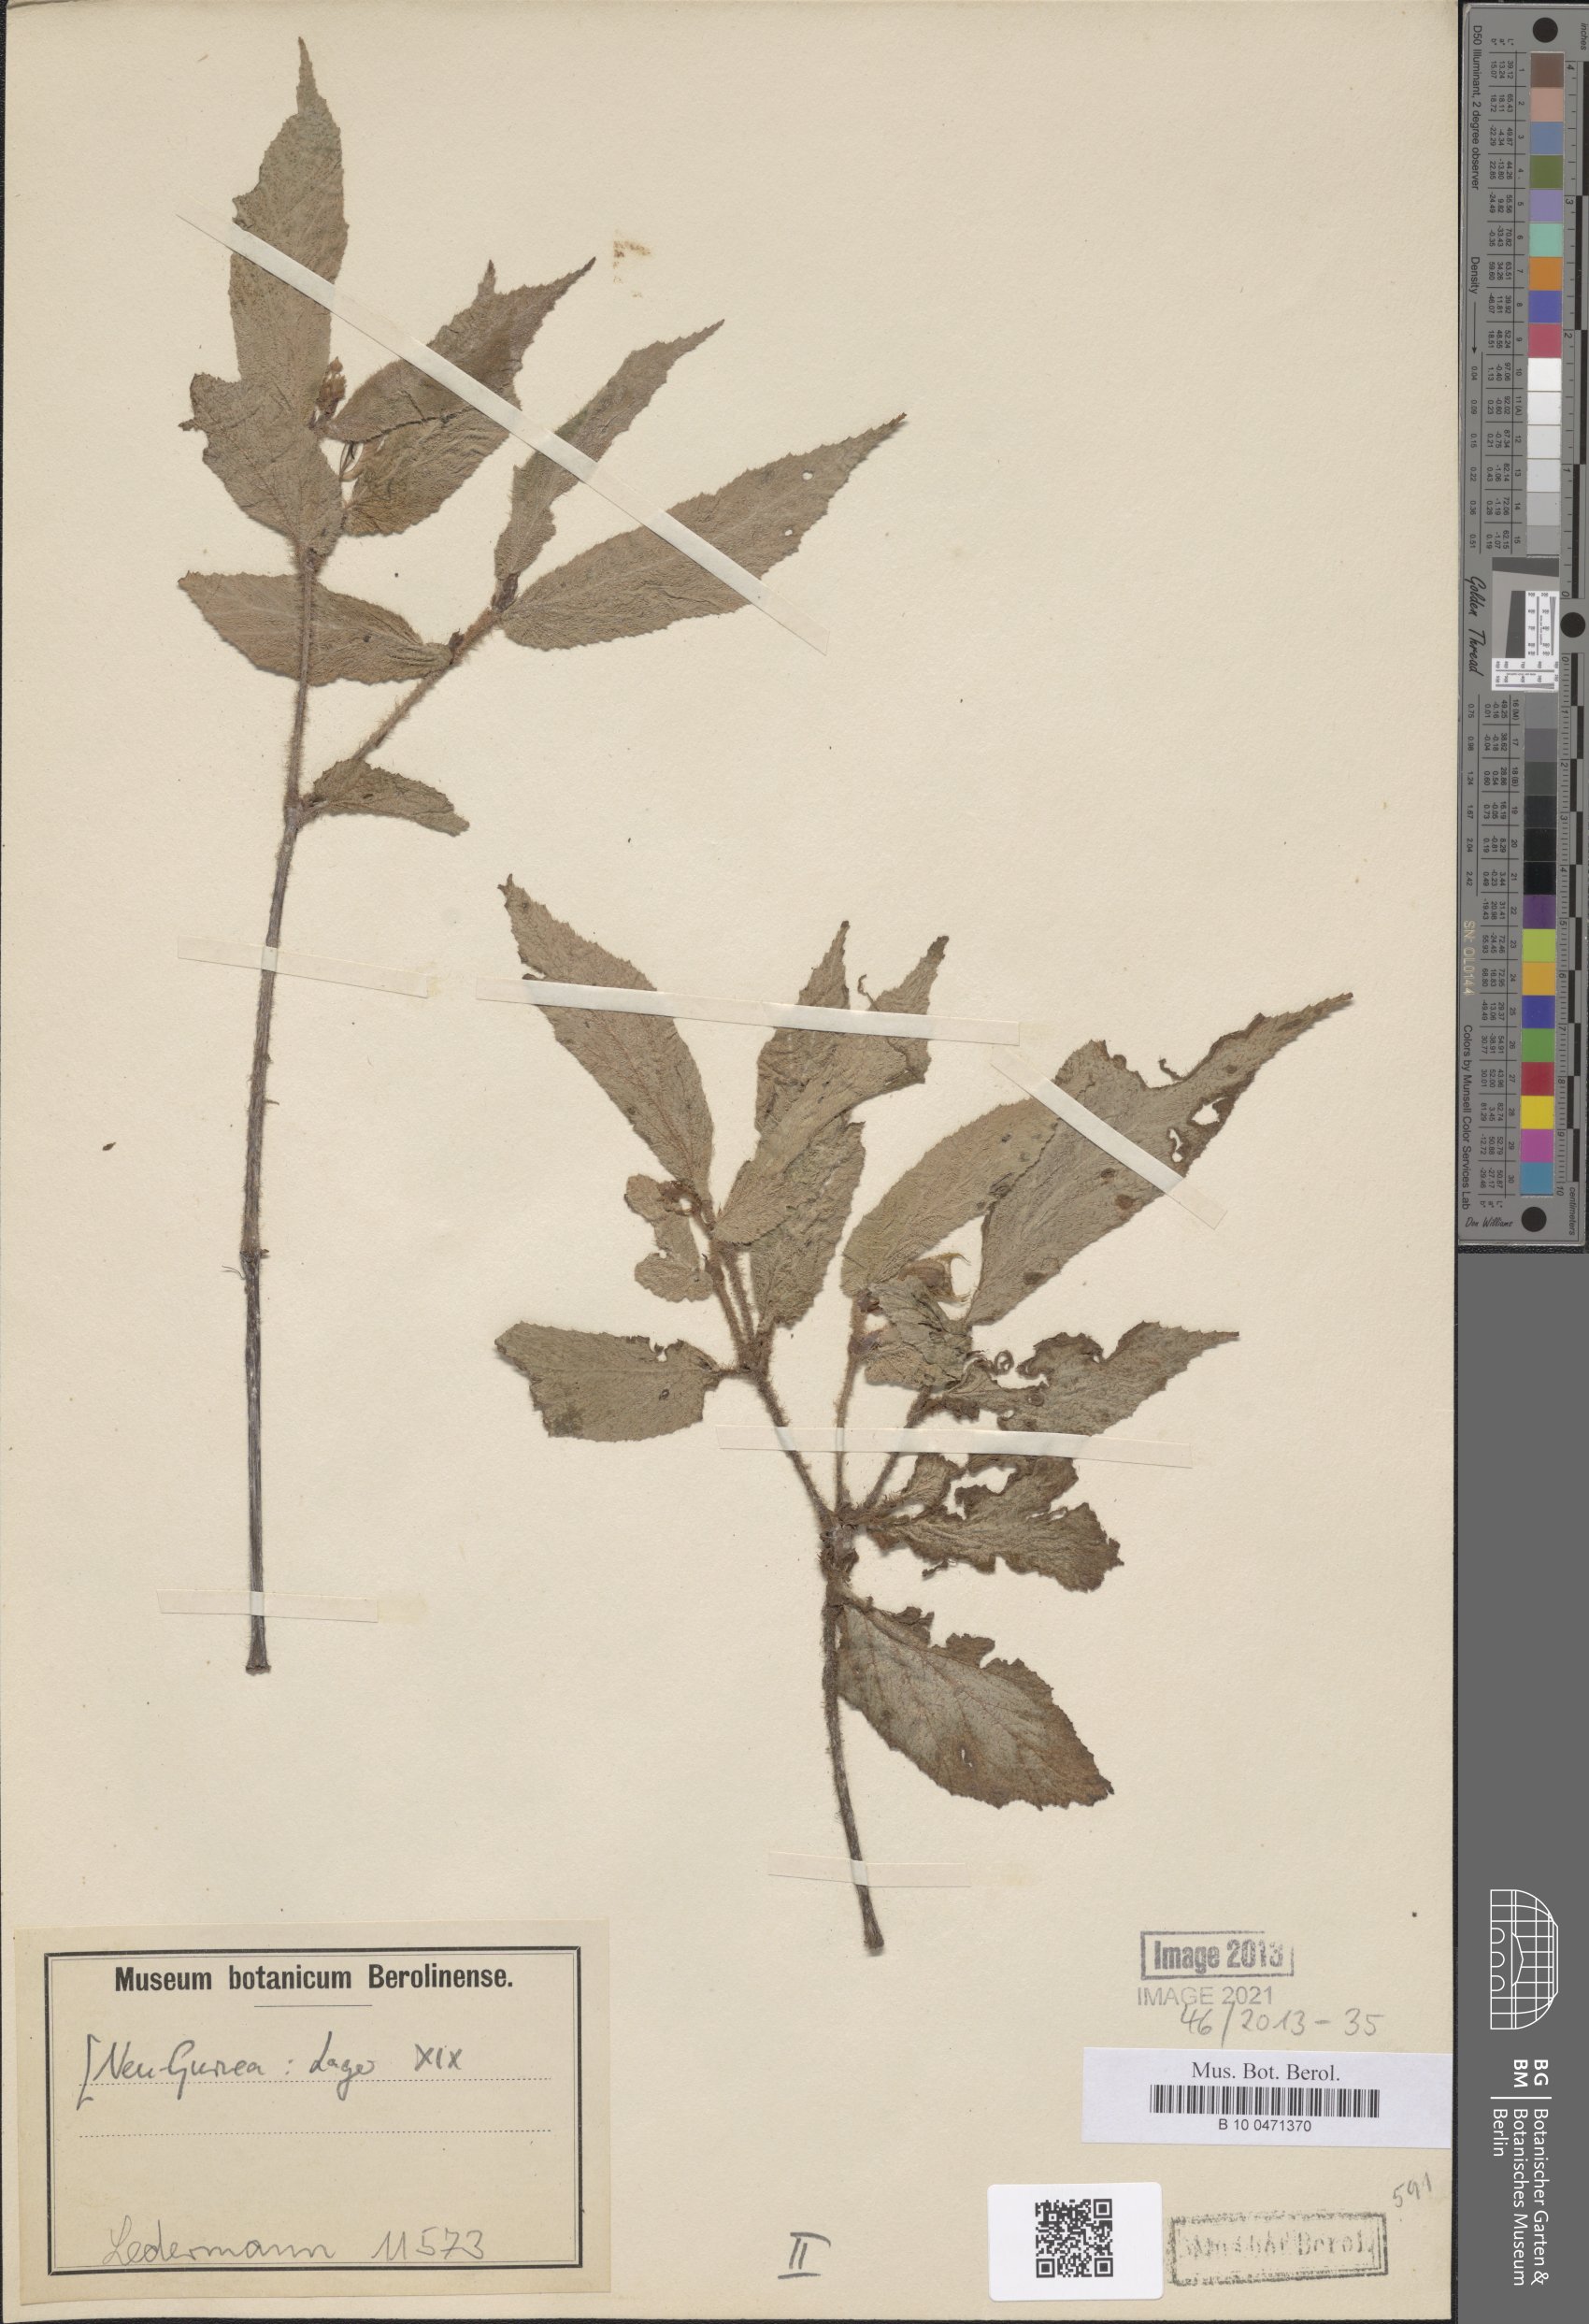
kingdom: Plantae
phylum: Tracheophyta
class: Magnoliopsida
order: Cucurbitales
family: Begoniaceae
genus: Begonia
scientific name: Begonia
